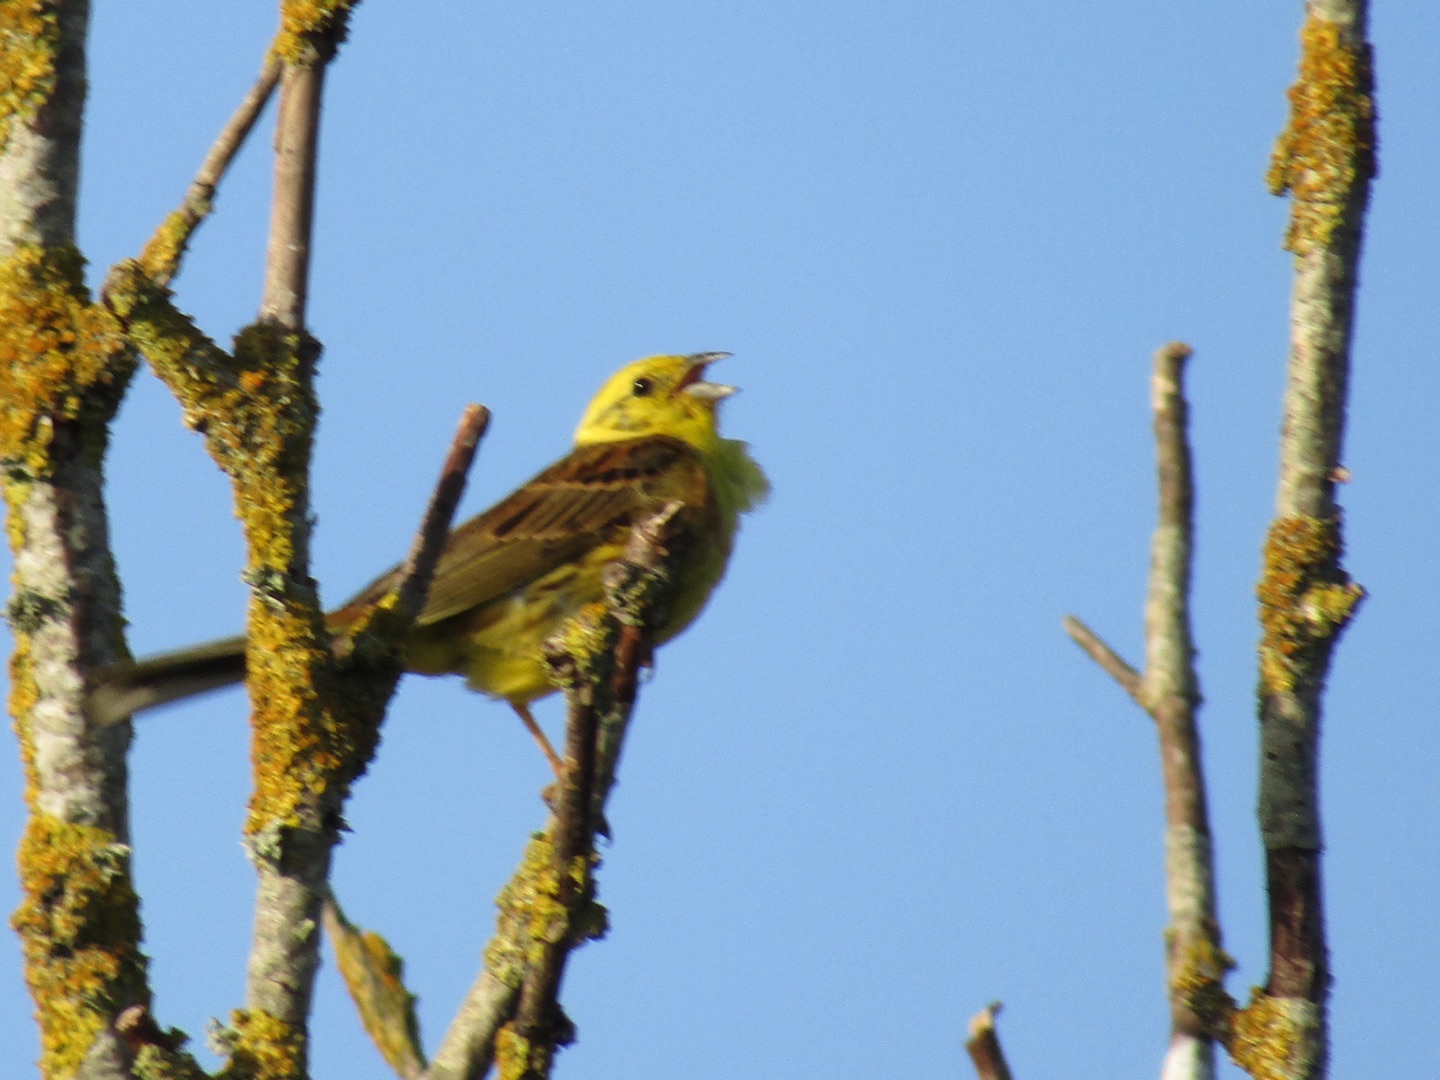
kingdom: Animalia
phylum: Chordata
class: Aves
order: Passeriformes
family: Emberizidae
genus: Emberiza
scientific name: Emberiza citrinella
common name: Gulspurv
